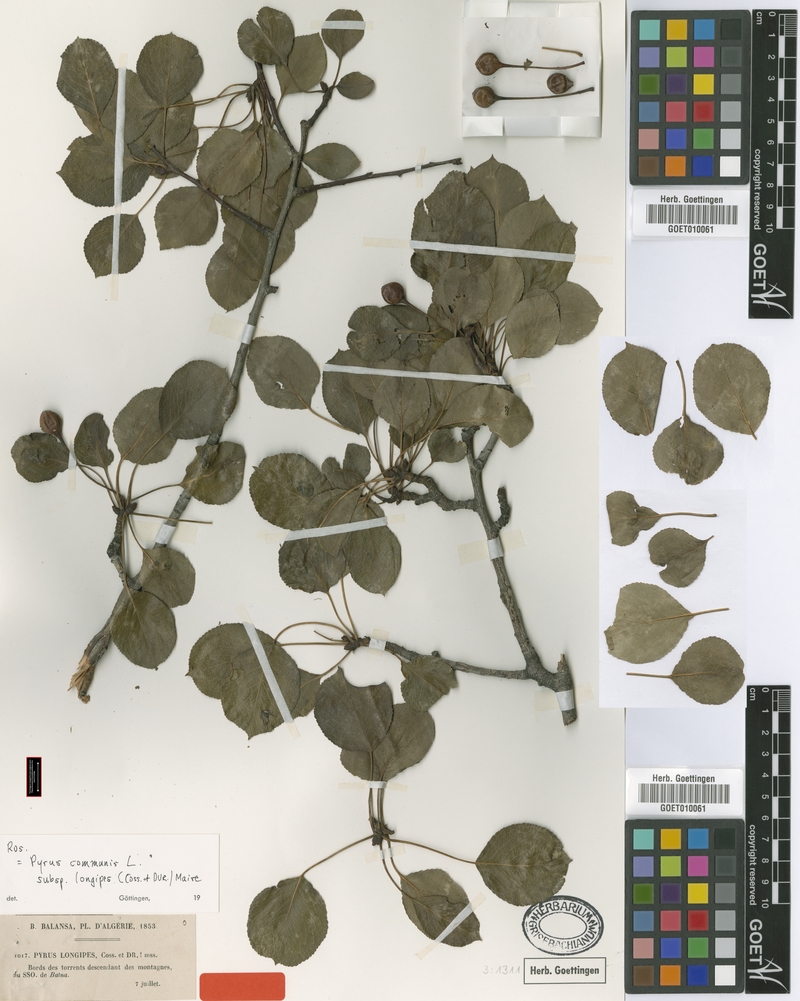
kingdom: Plantae
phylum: Tracheophyta
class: Magnoliopsida
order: Rosales
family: Rosaceae
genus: Pyrus
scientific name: Pyrus cordata
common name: Plymouth pear
